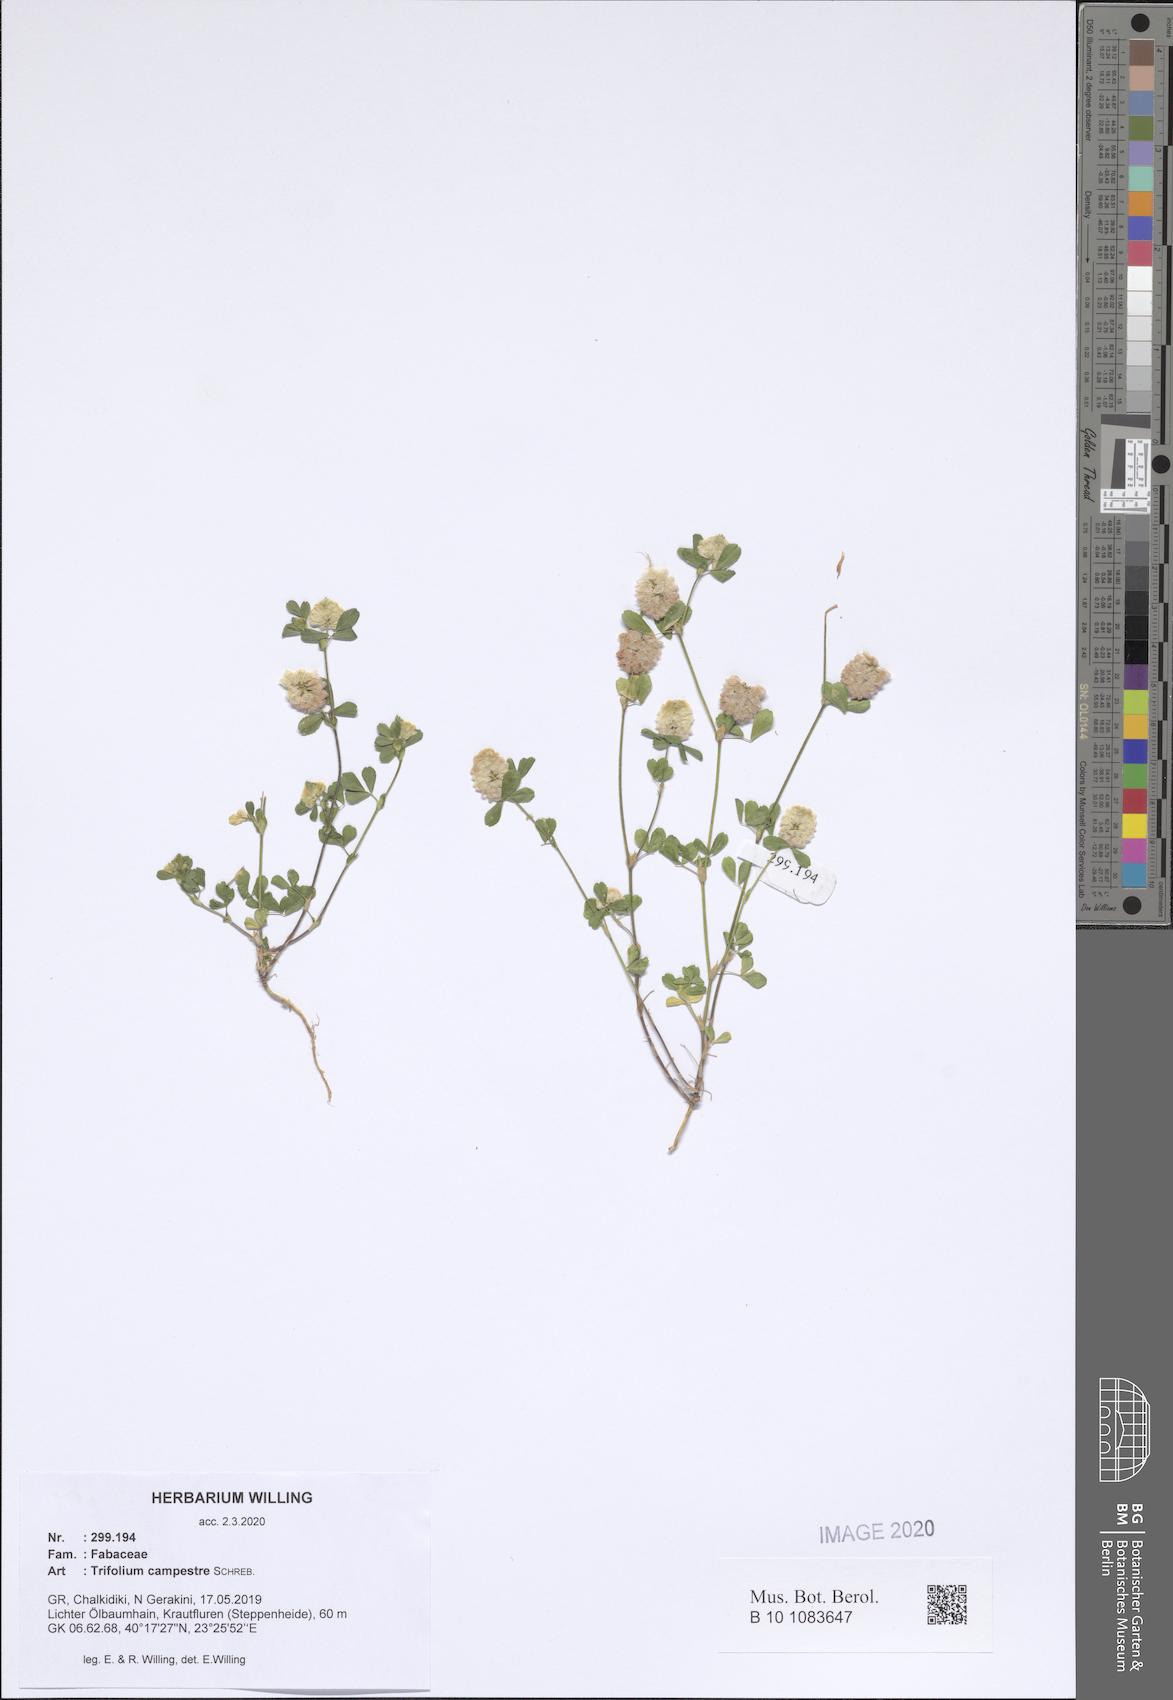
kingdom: Plantae
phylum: Tracheophyta
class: Magnoliopsida
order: Fabales
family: Fabaceae
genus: Trifolium
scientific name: Trifolium campestre
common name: Field clover
